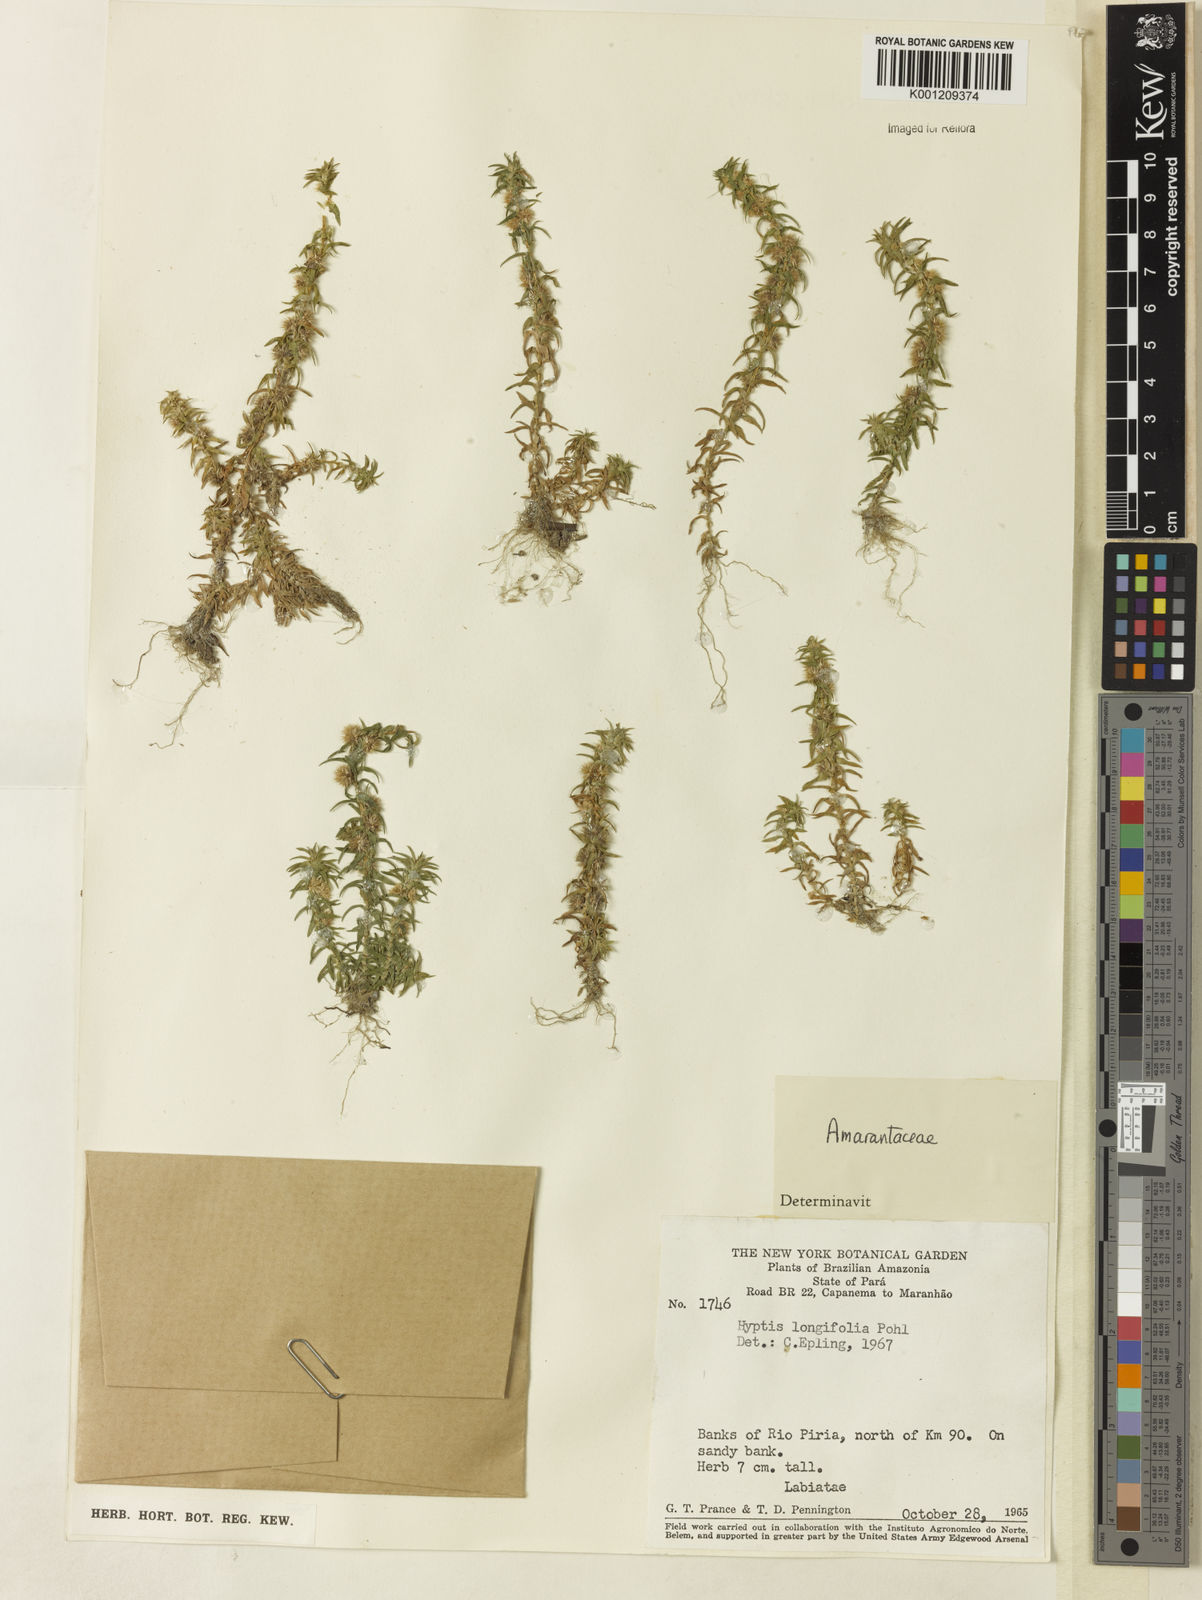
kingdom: Plantae
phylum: Tracheophyta
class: Magnoliopsida
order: Caryophyllales
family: Amaranthaceae
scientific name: Amaranthaceae
